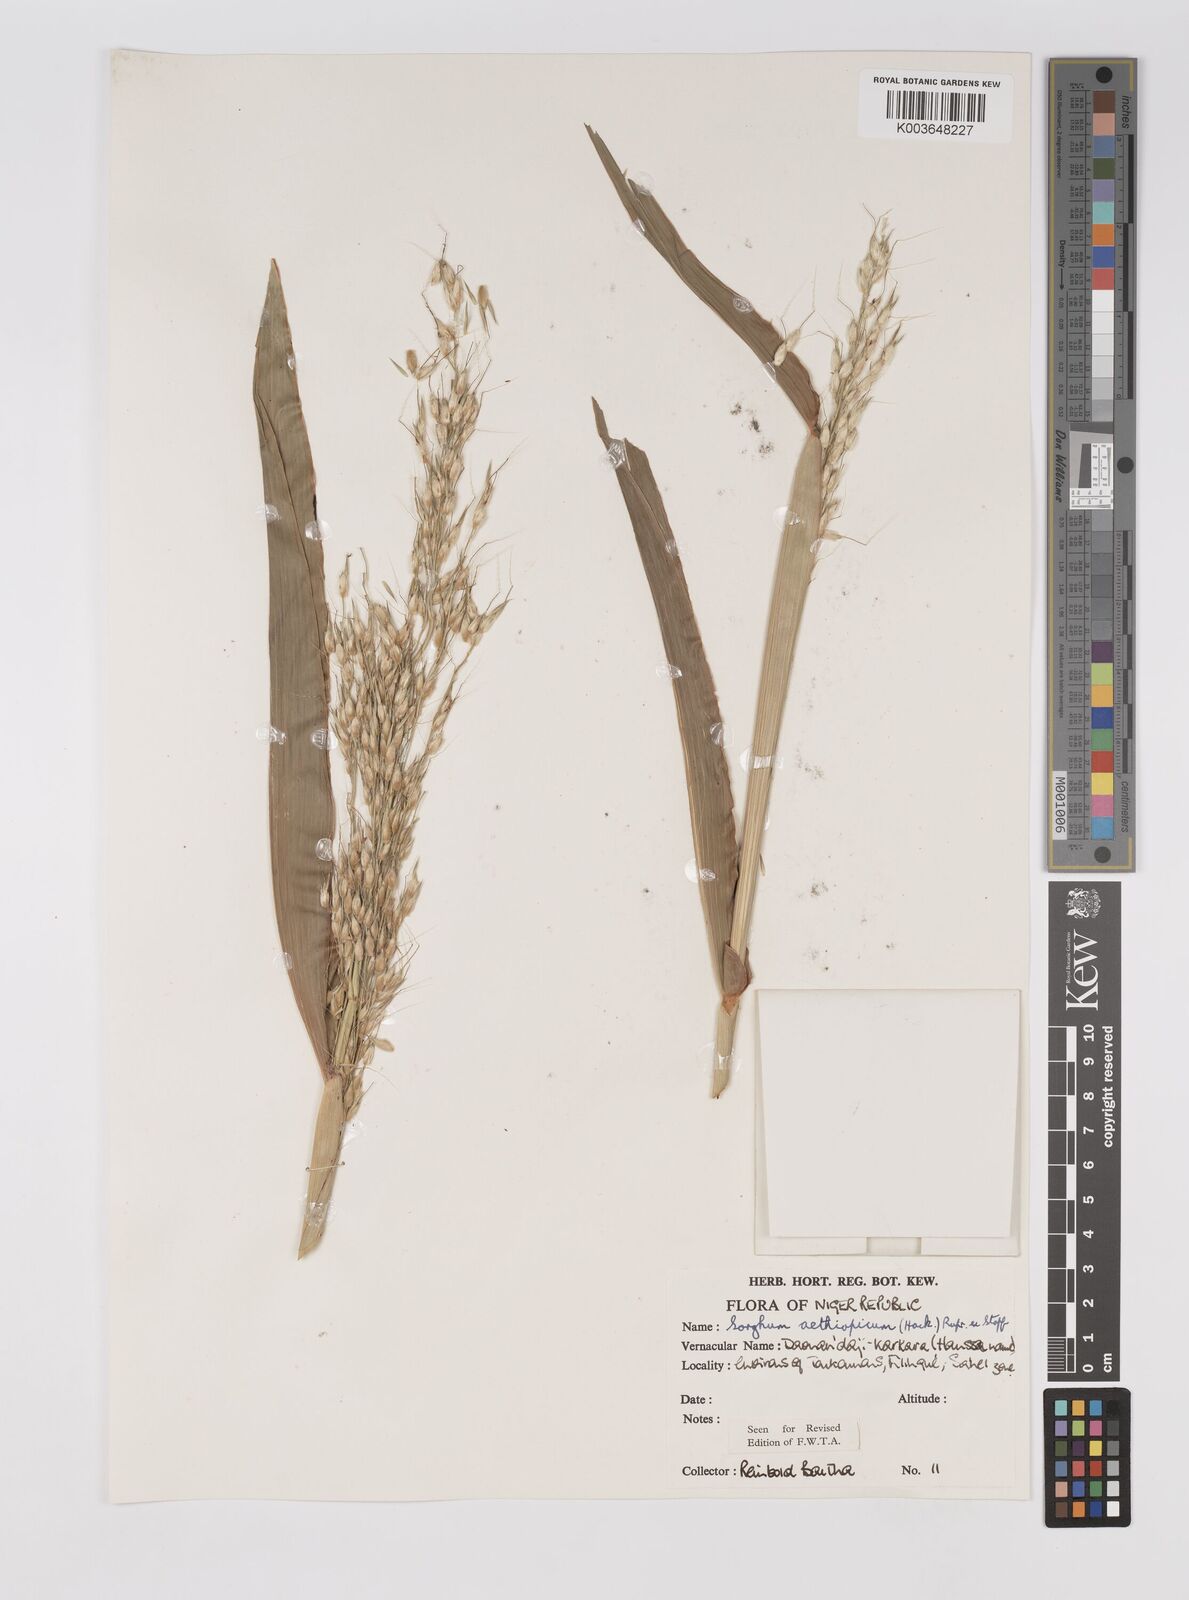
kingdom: Plantae
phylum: Tracheophyta
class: Liliopsida
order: Poales
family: Poaceae
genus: Sorghum
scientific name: Sorghum arundinaceum
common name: Sorghum
